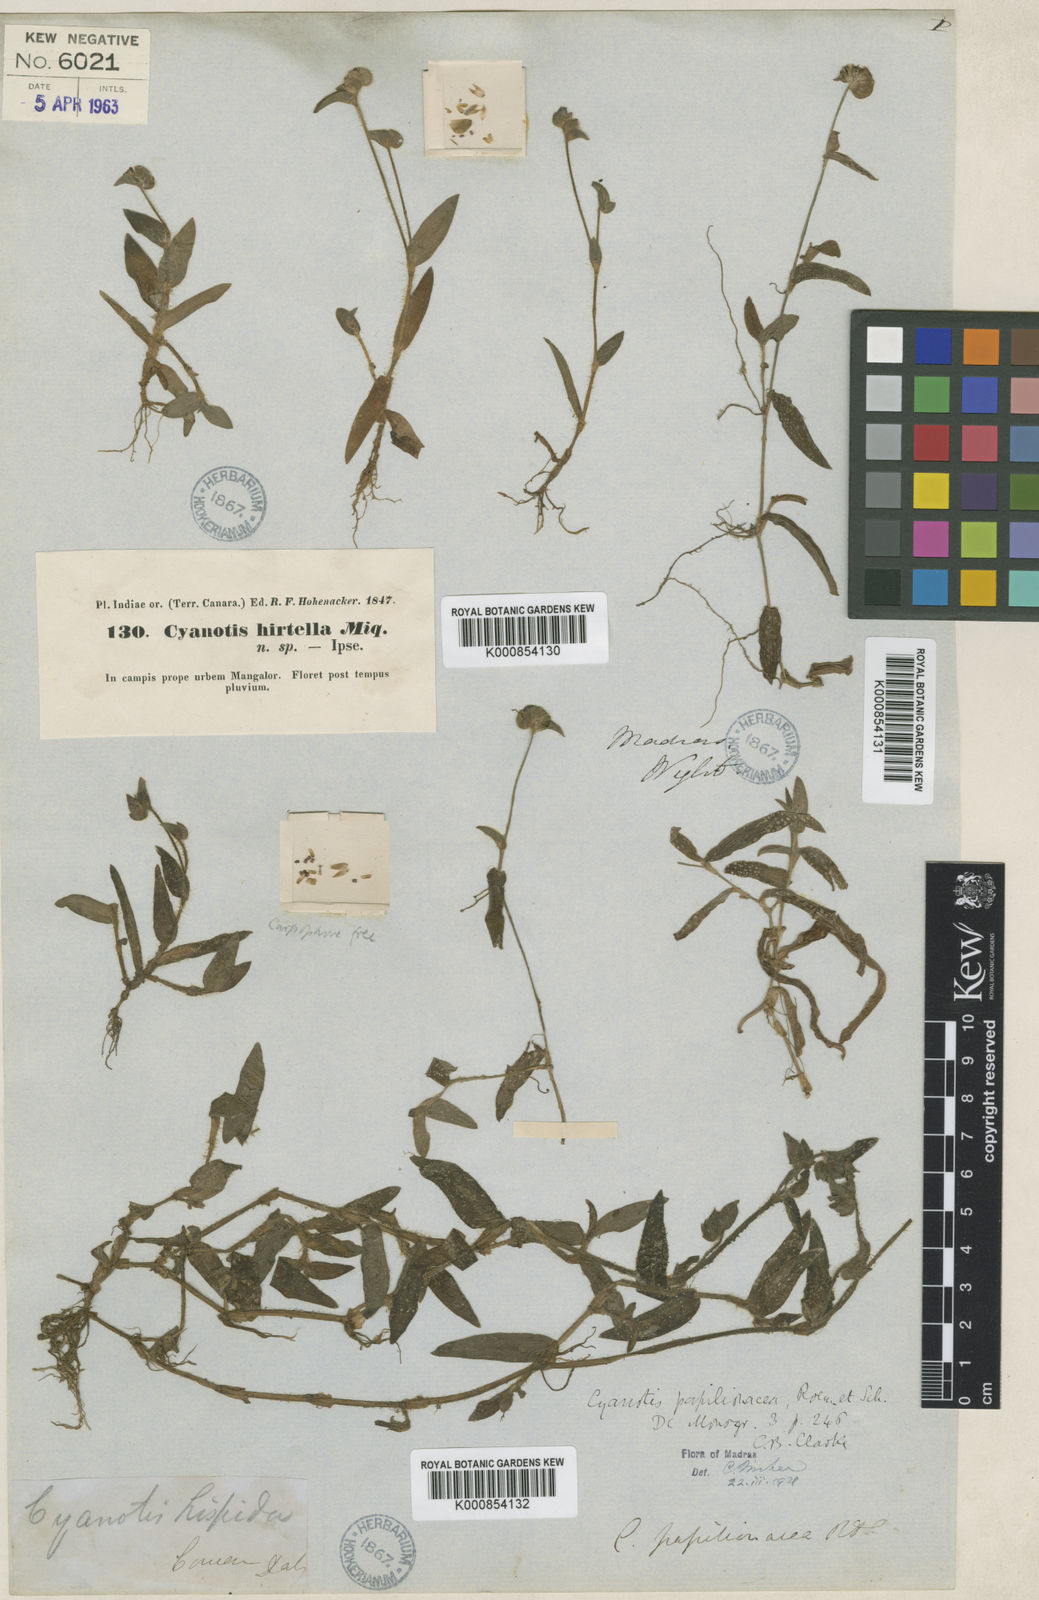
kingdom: Plantae
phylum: Tracheophyta
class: Liliopsida
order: Commelinales
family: Commelinaceae
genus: Cyanotis
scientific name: Cyanotis cristata
